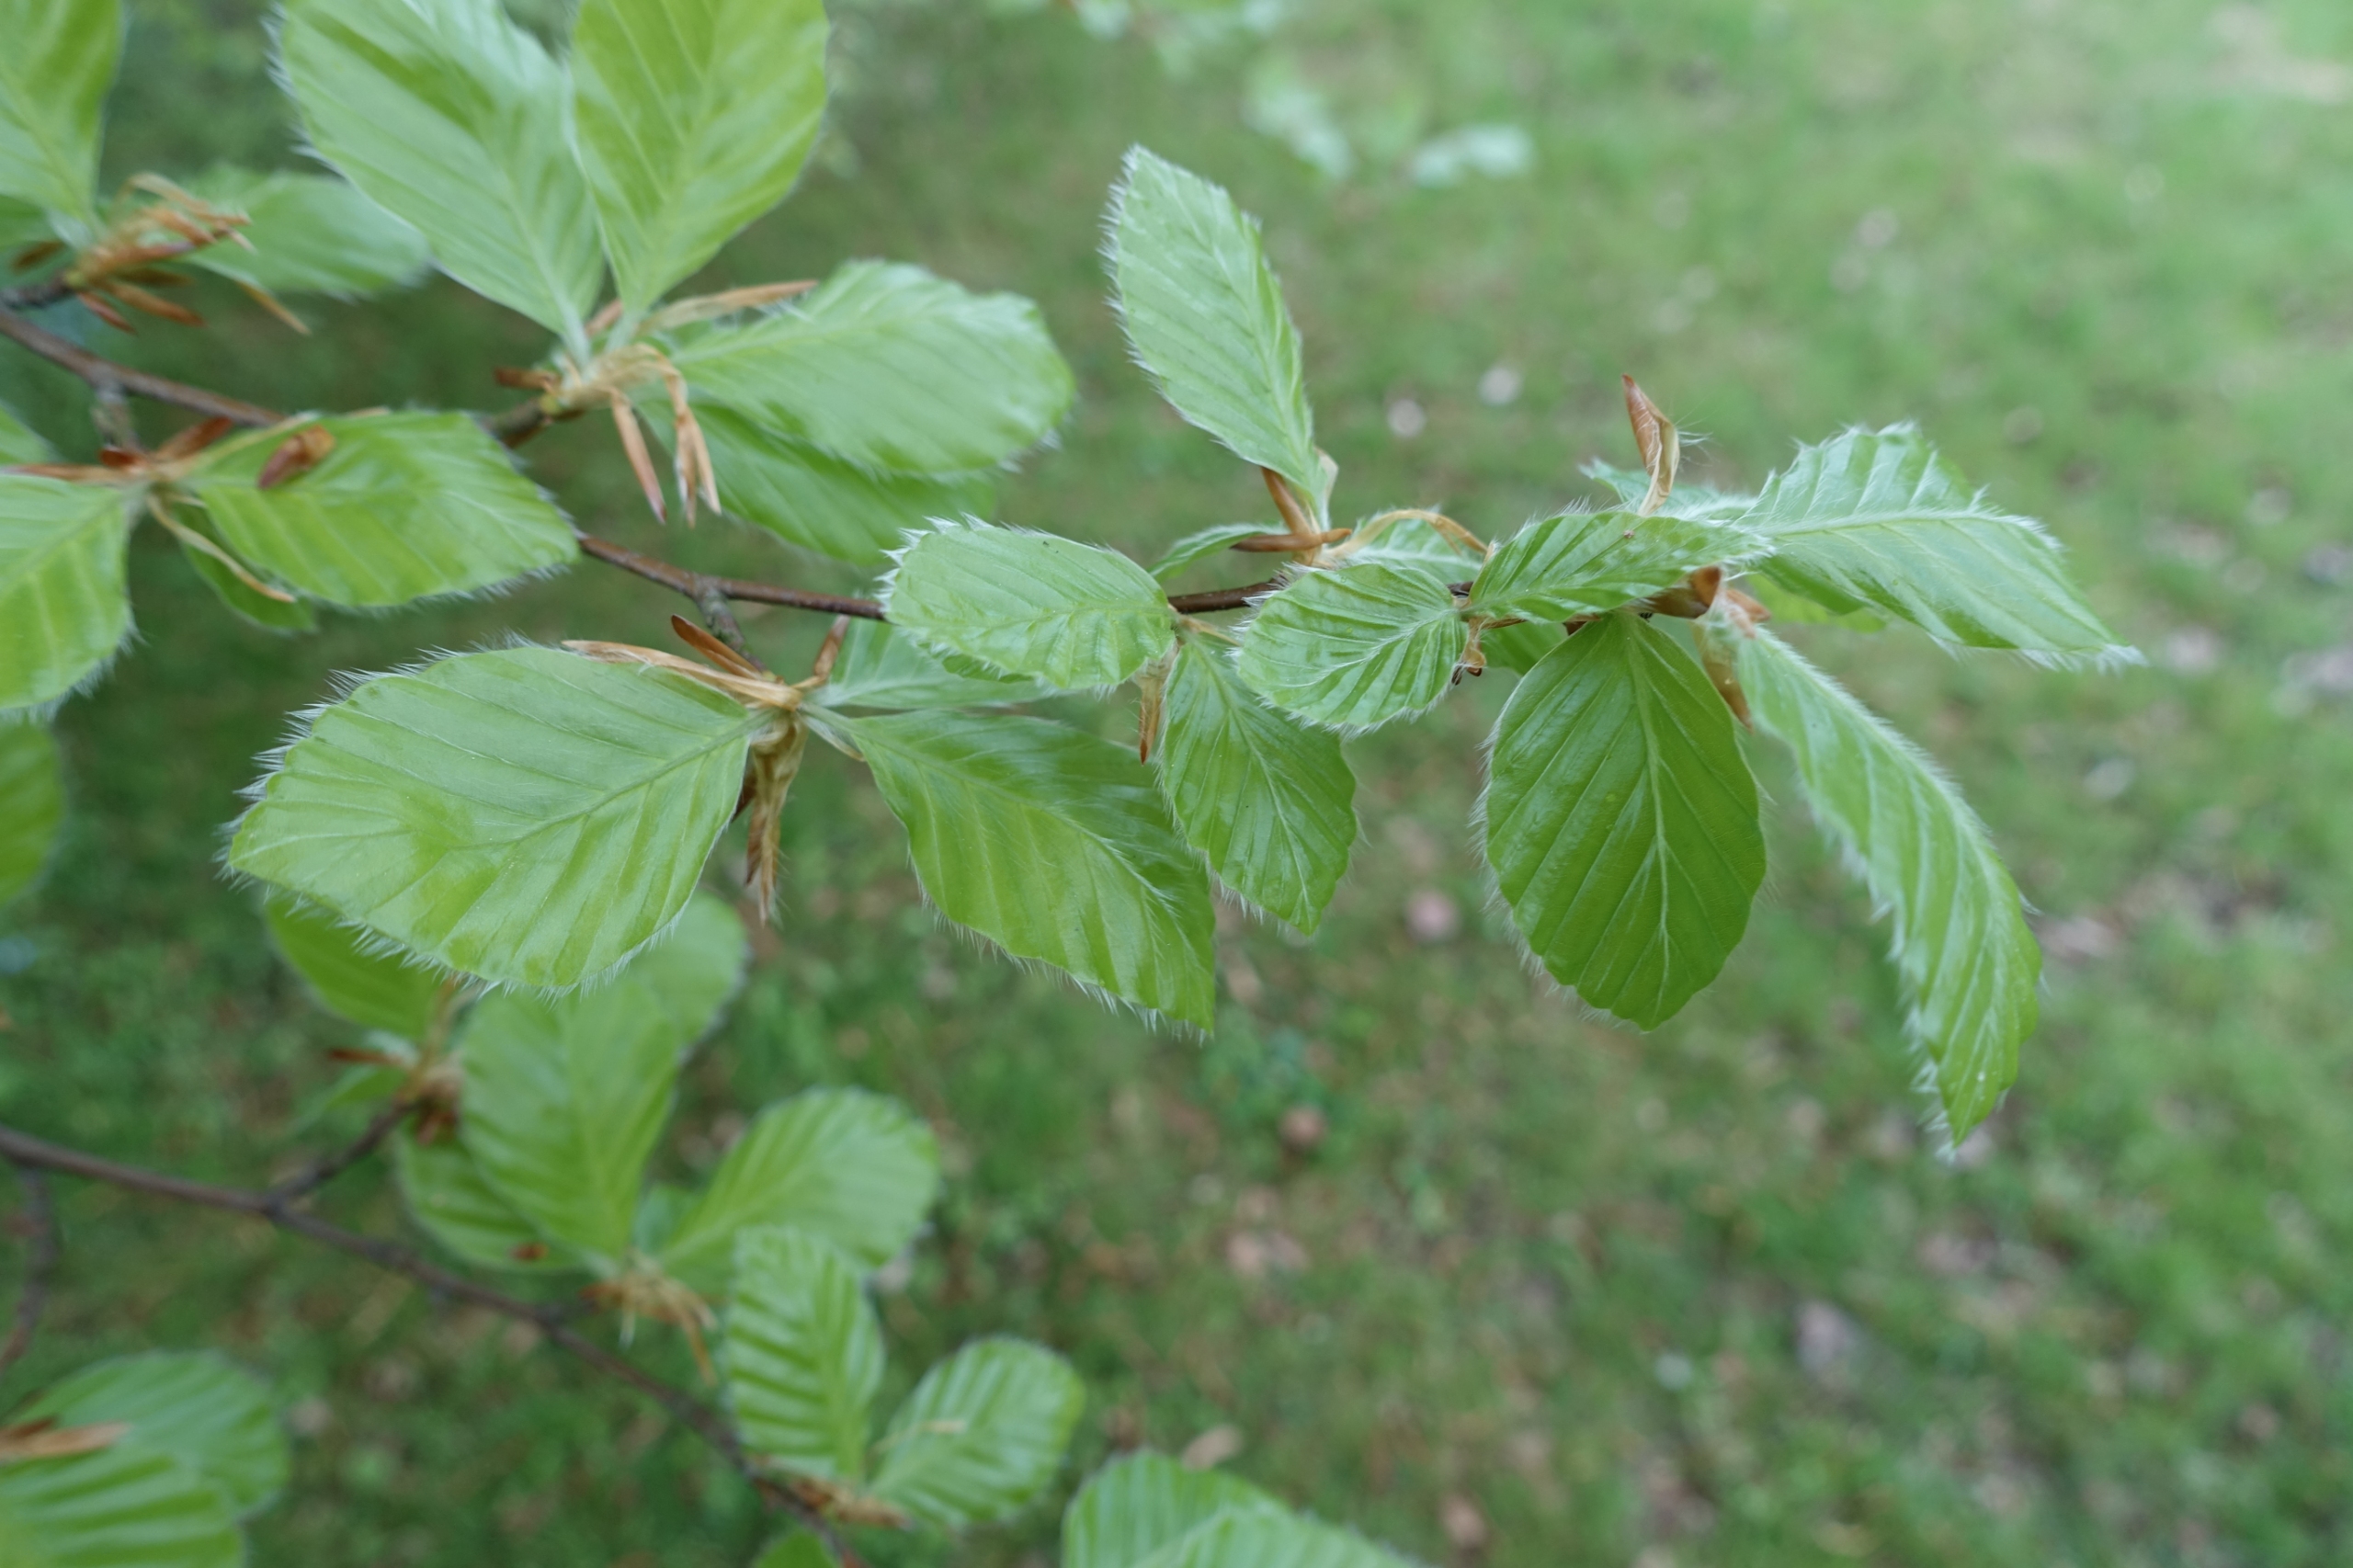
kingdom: Plantae
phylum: Tracheophyta
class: Magnoliopsida
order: Fagales
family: Fagaceae
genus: Fagus
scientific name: Fagus sylvatica
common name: Bøg
